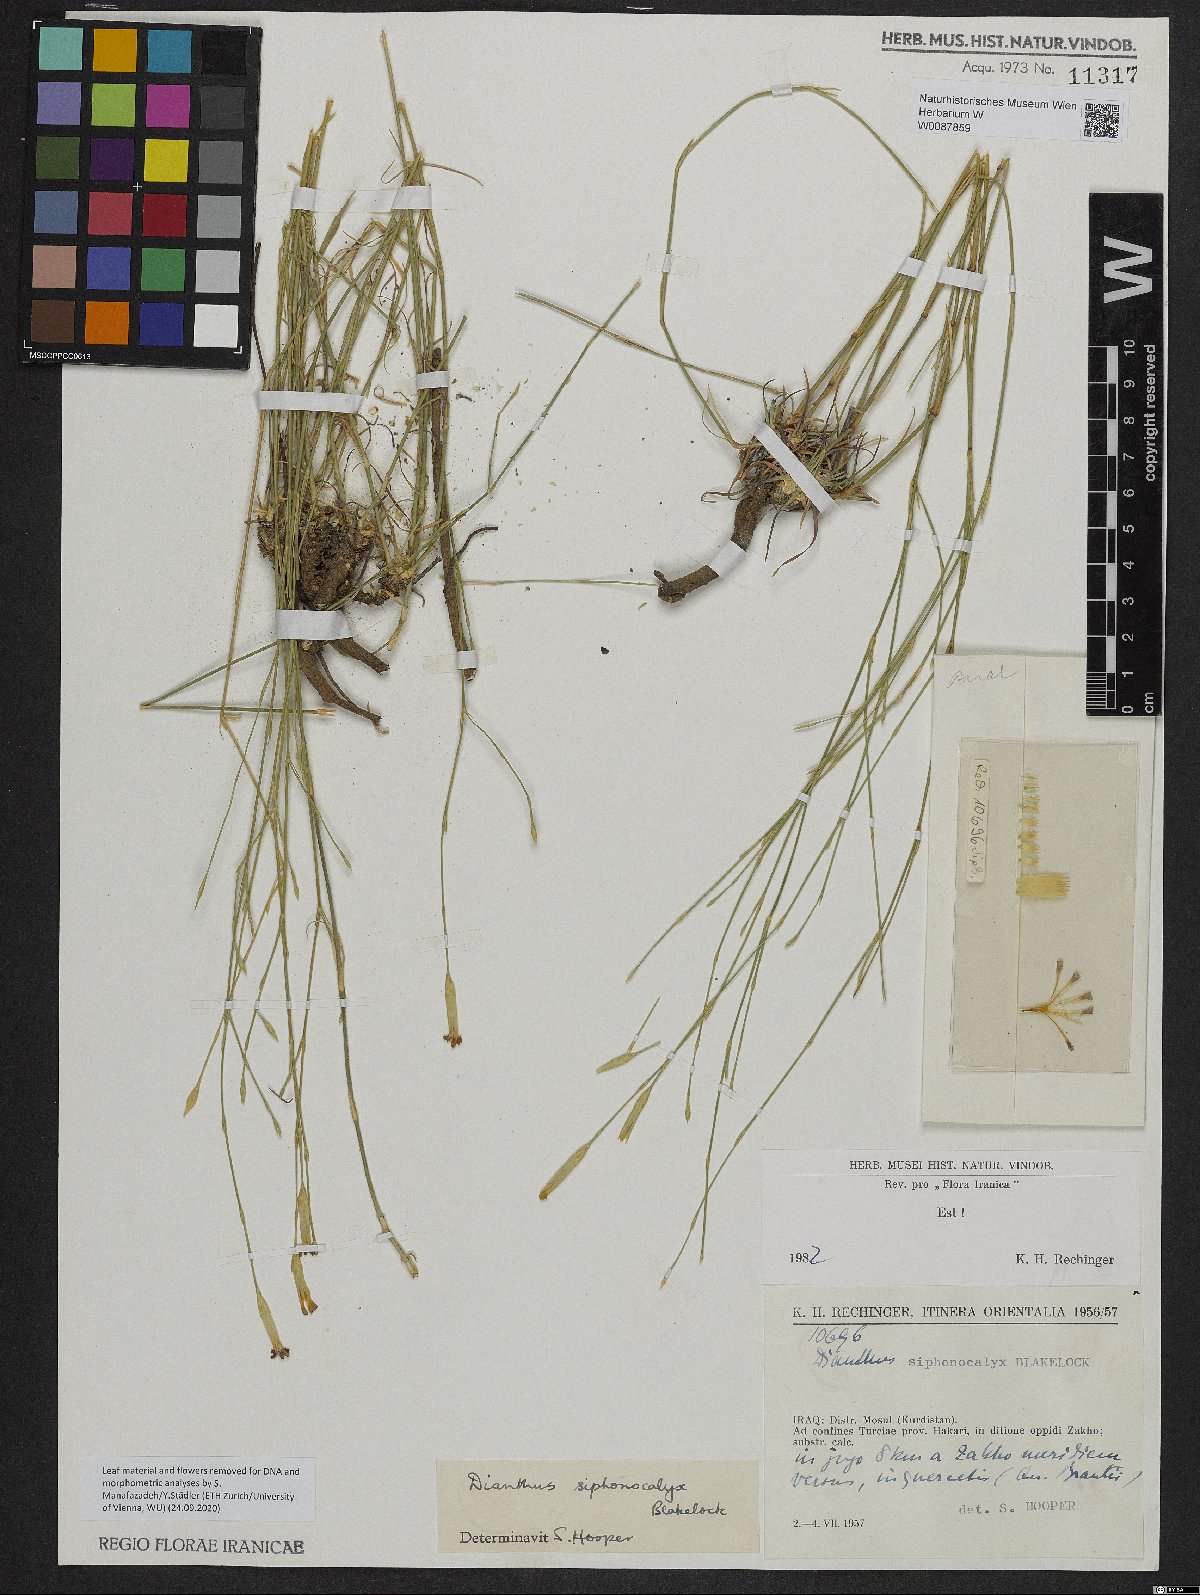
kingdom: Plantae
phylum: Tracheophyta
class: Magnoliopsida
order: Caryophyllales
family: Caryophyllaceae
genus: Dianthus
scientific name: Dianthus siphonocalyx
